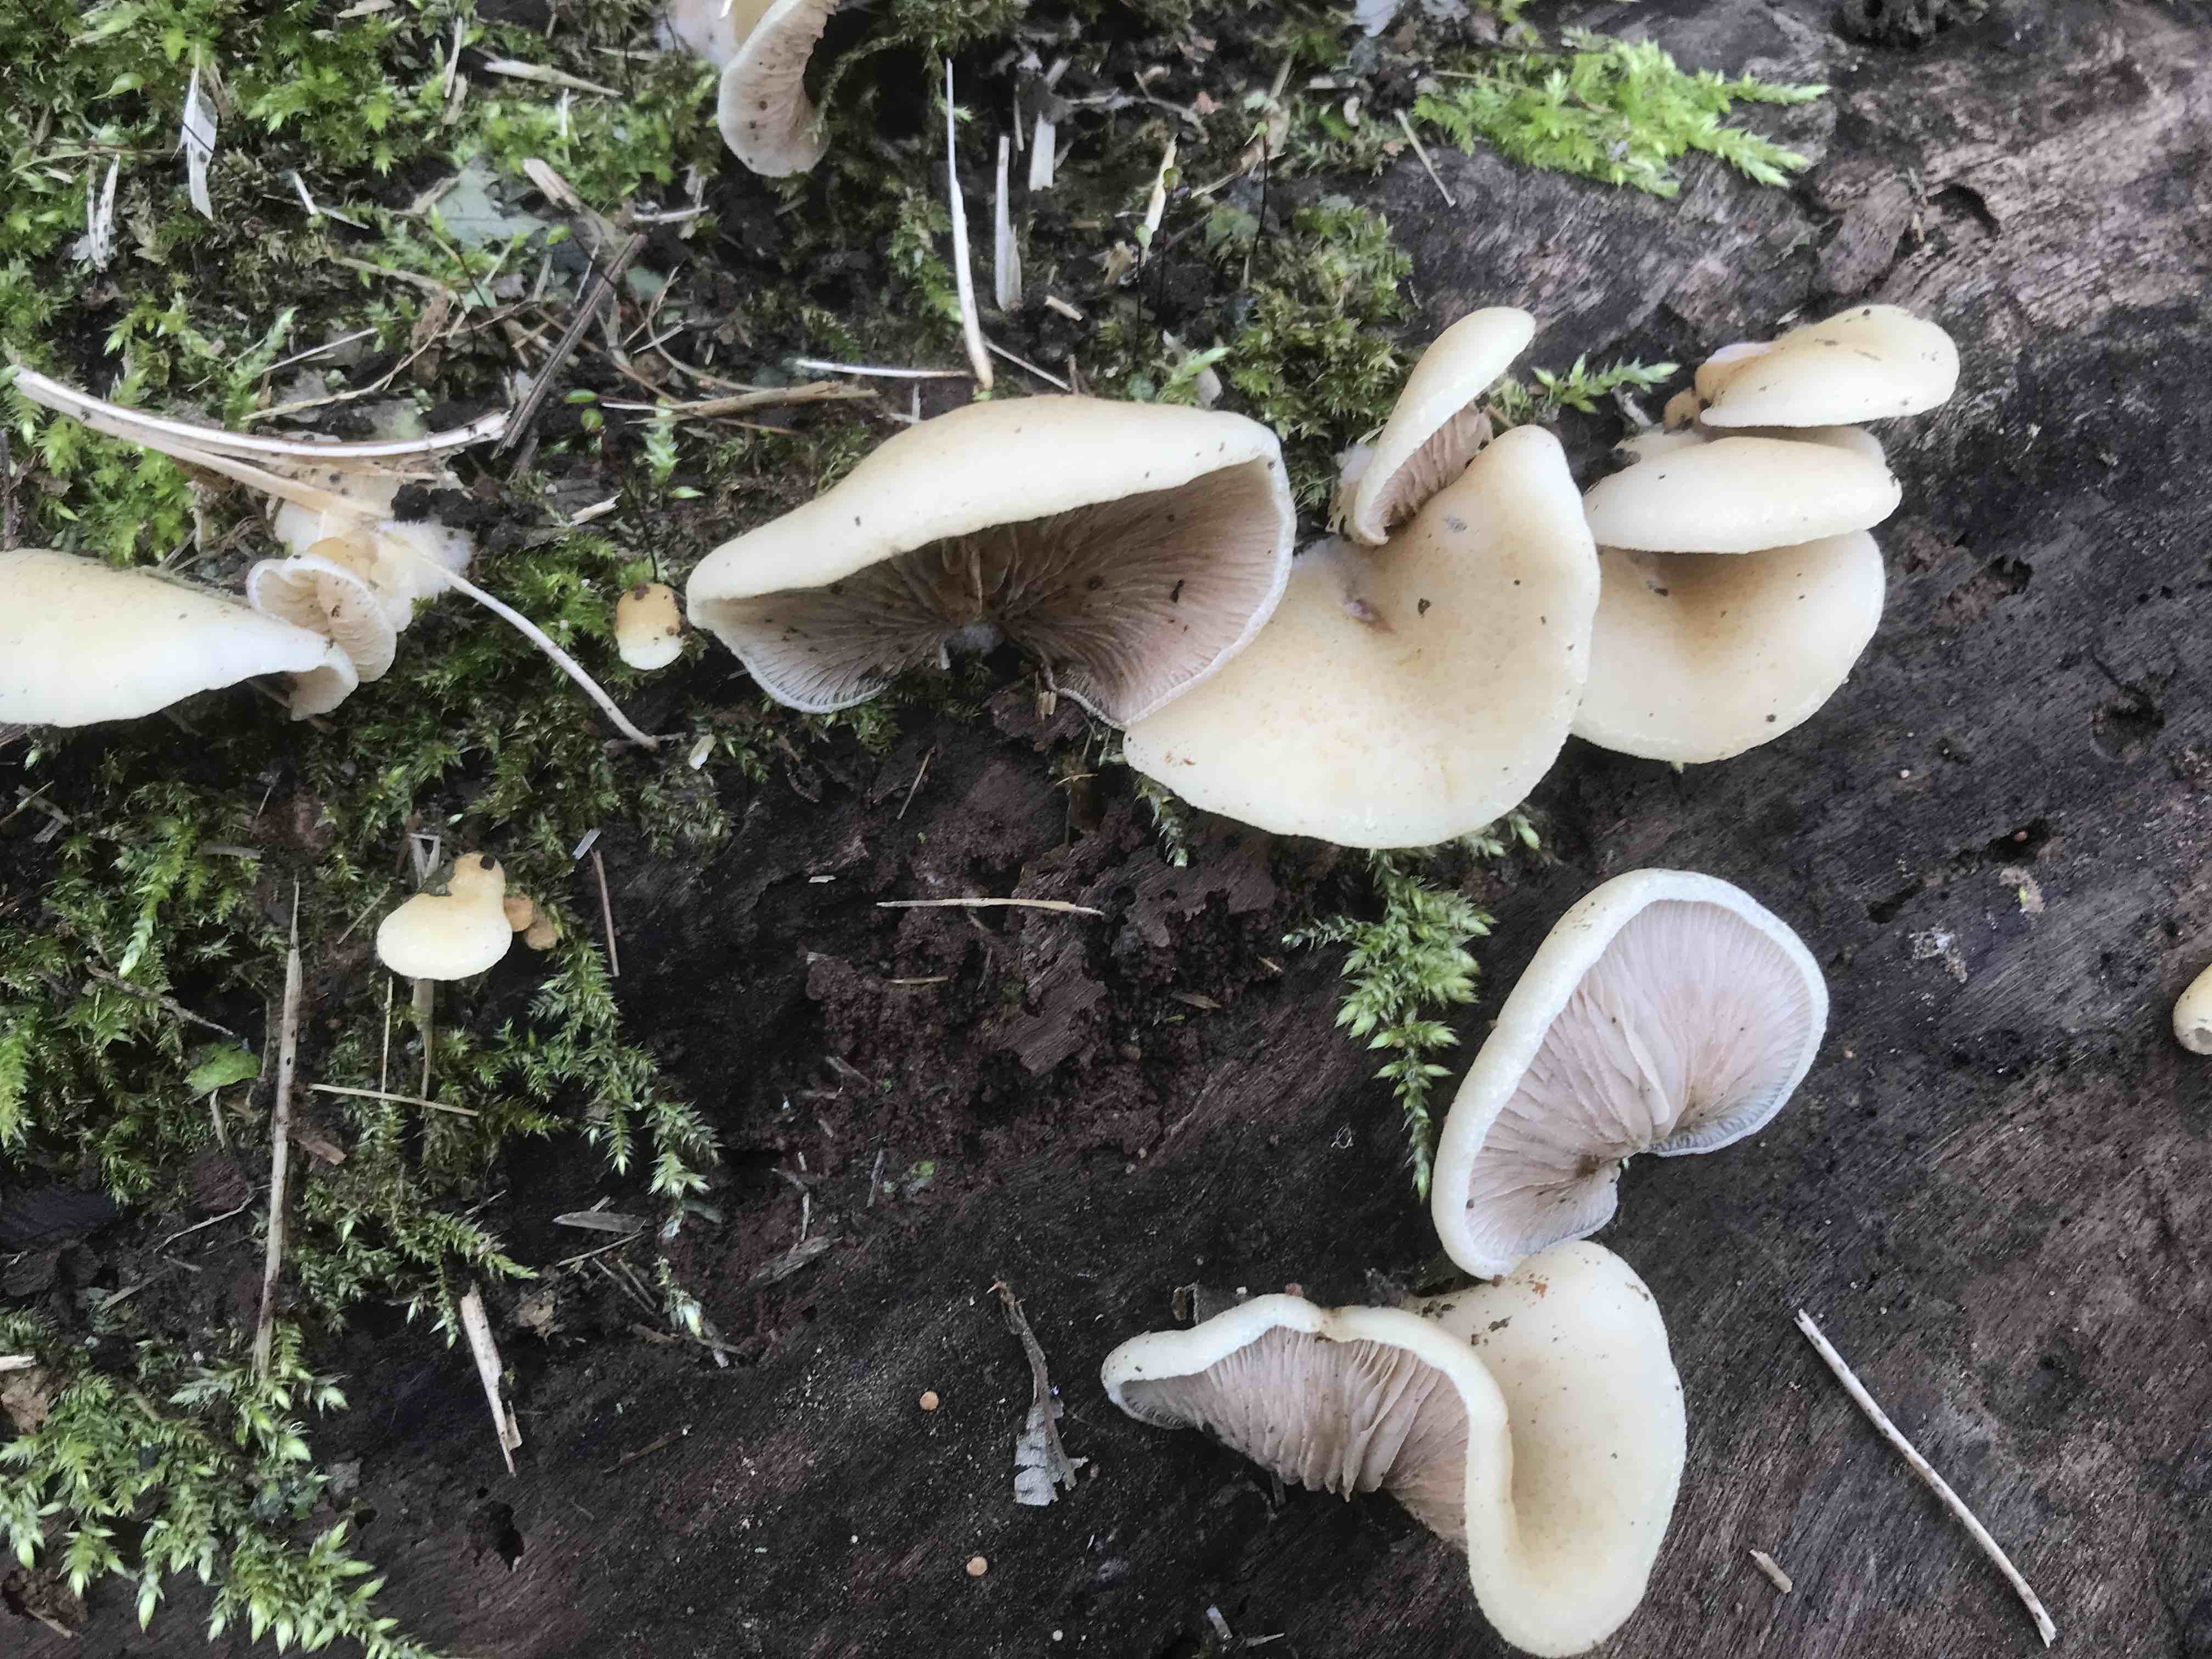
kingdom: Fungi
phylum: Basidiomycota
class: Agaricomycetes
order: Agaricales
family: Crepidotaceae
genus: Crepidotus
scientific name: Crepidotus mollis
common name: blød muslingesvamp
